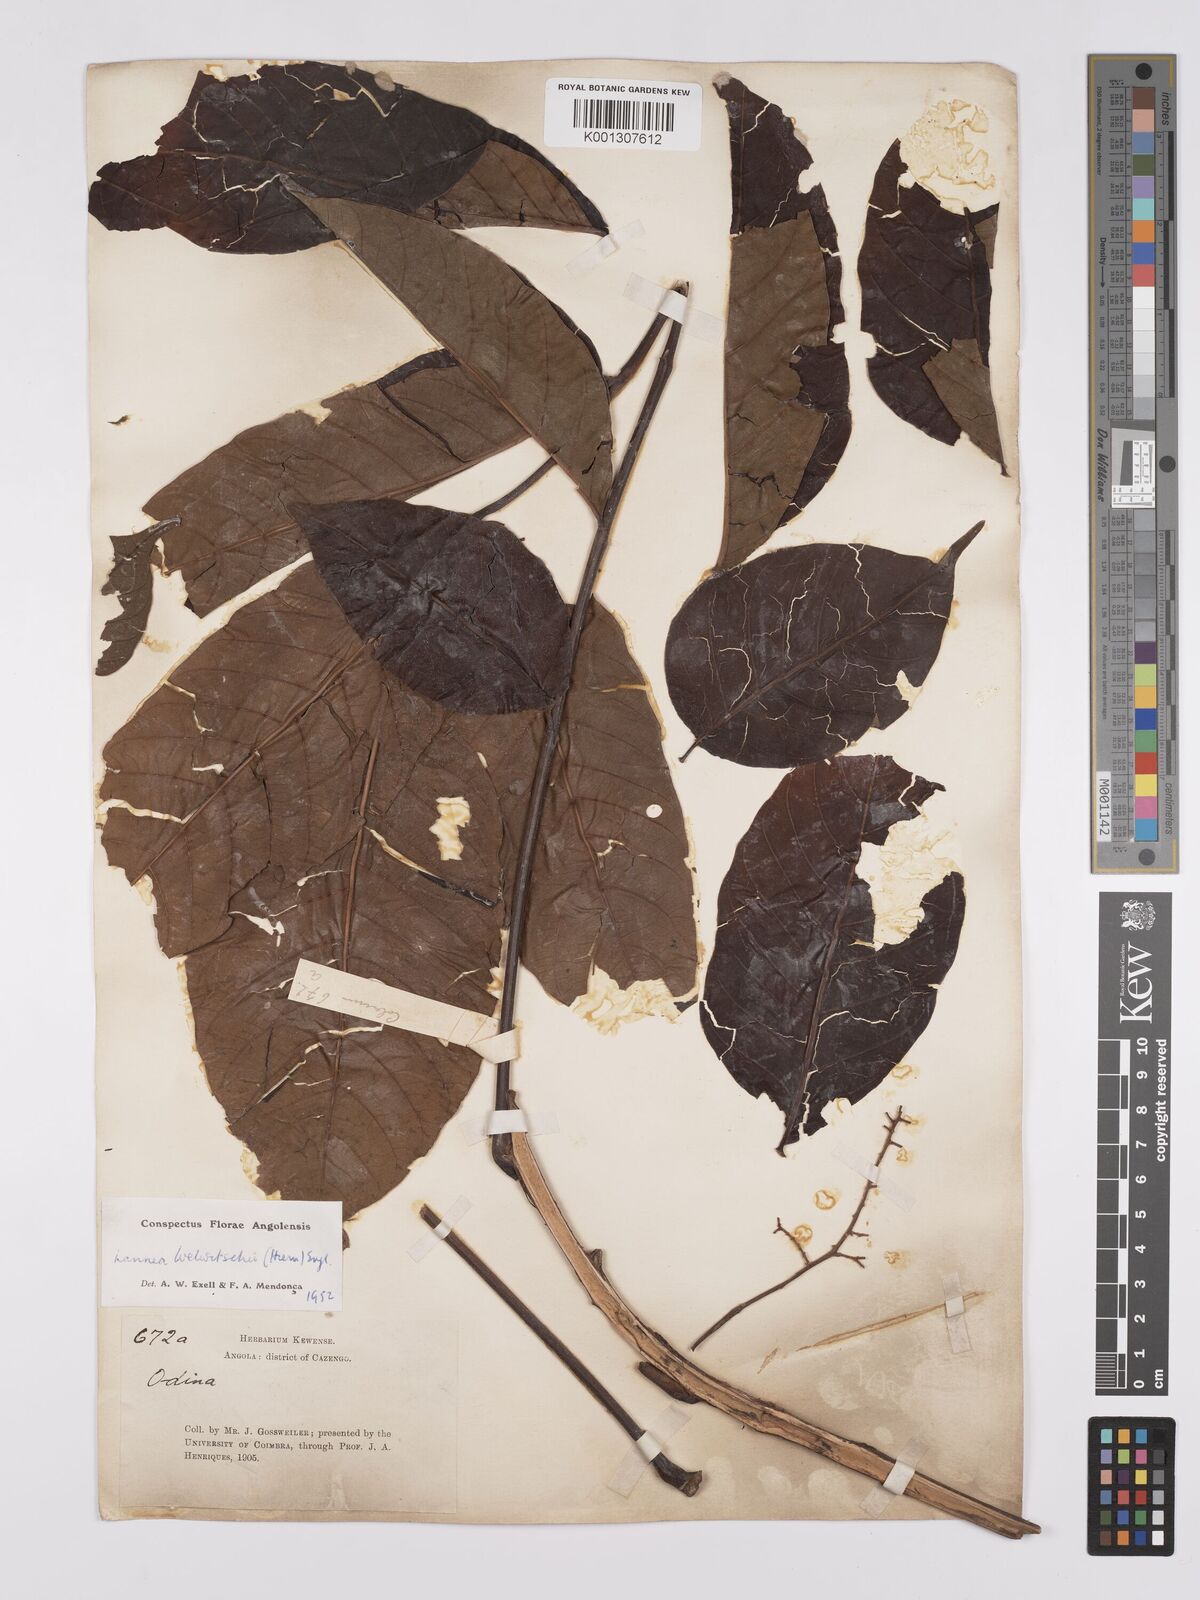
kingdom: Plantae
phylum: Tracheophyta
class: Magnoliopsida
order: Sapindales
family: Anacardiaceae
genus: Lannea
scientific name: Lannea welwitschii
